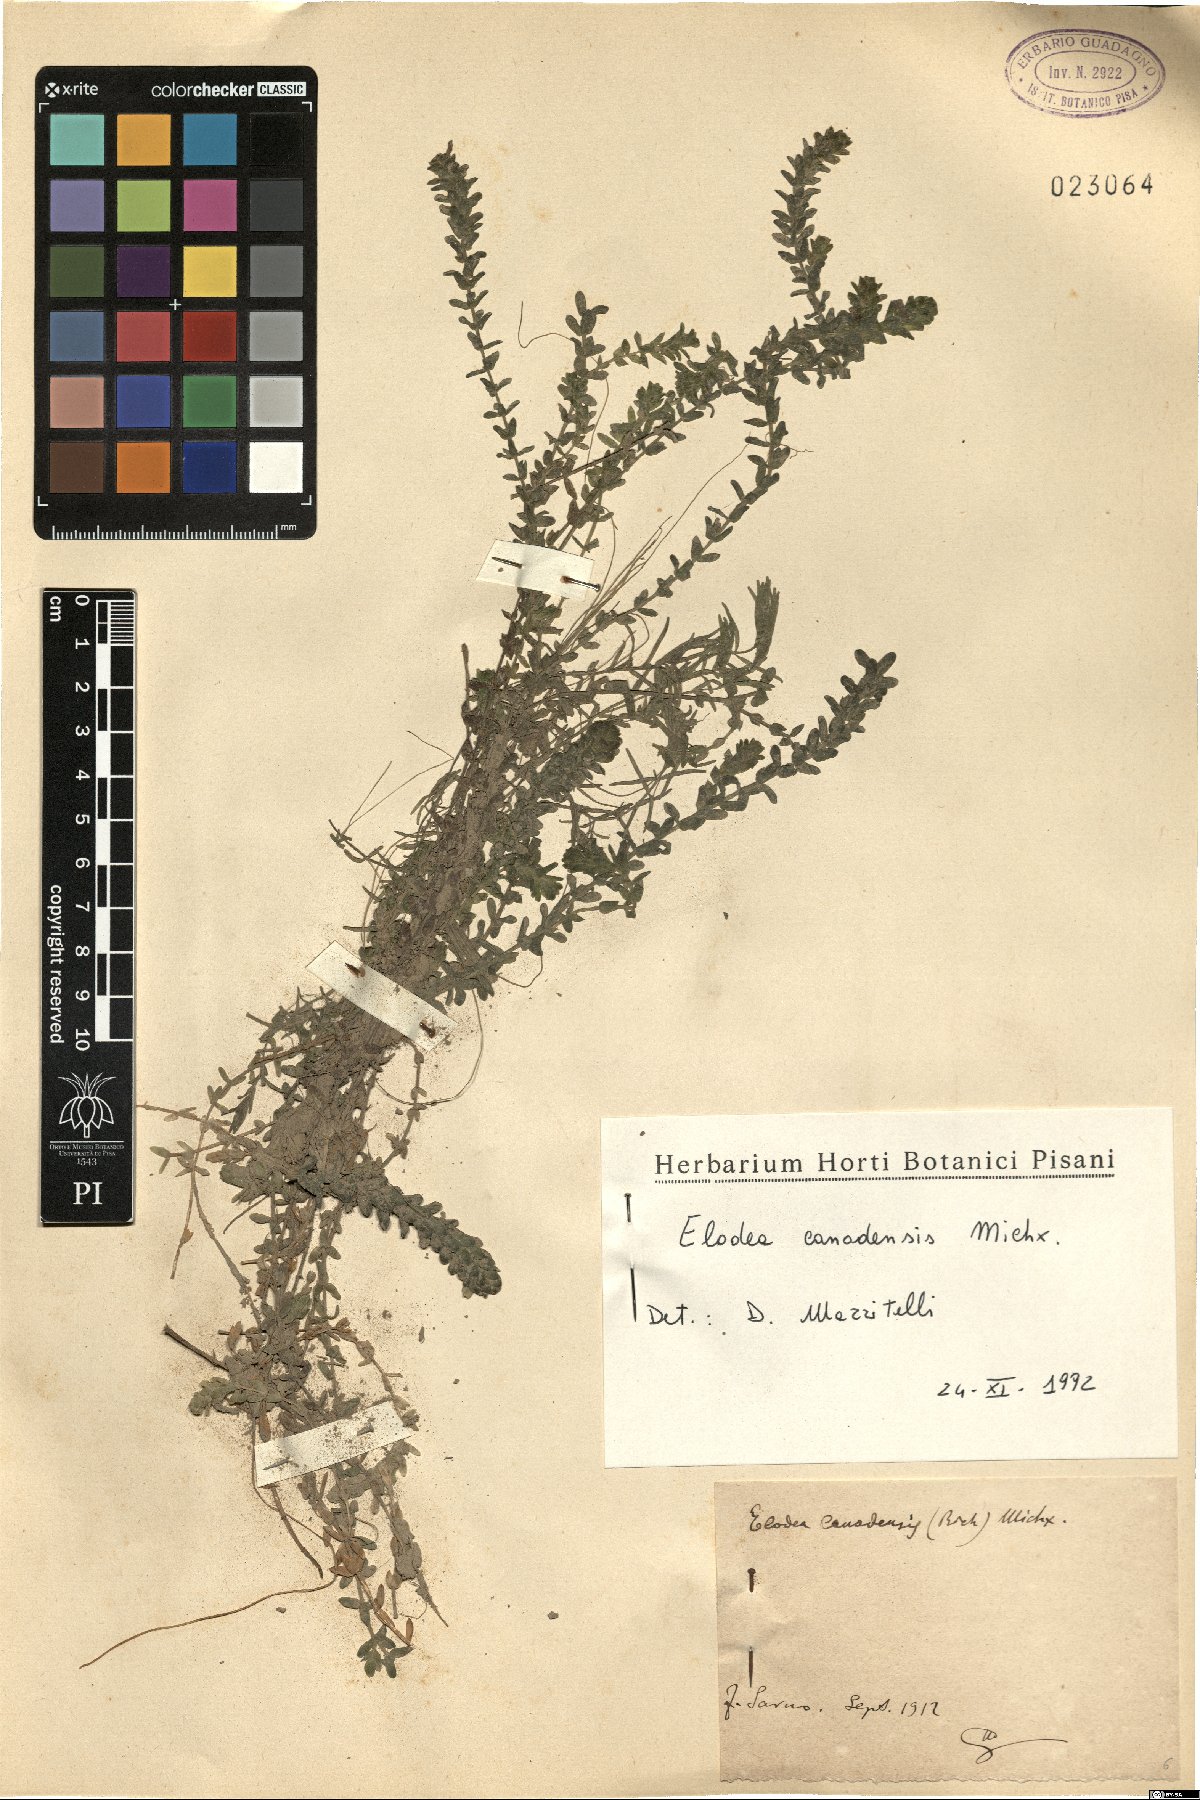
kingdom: Plantae
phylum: Tracheophyta
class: Liliopsida
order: Alismatales
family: Hydrocharitaceae
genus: Elodea
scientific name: Elodea canadensis
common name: Canadian waterweed
